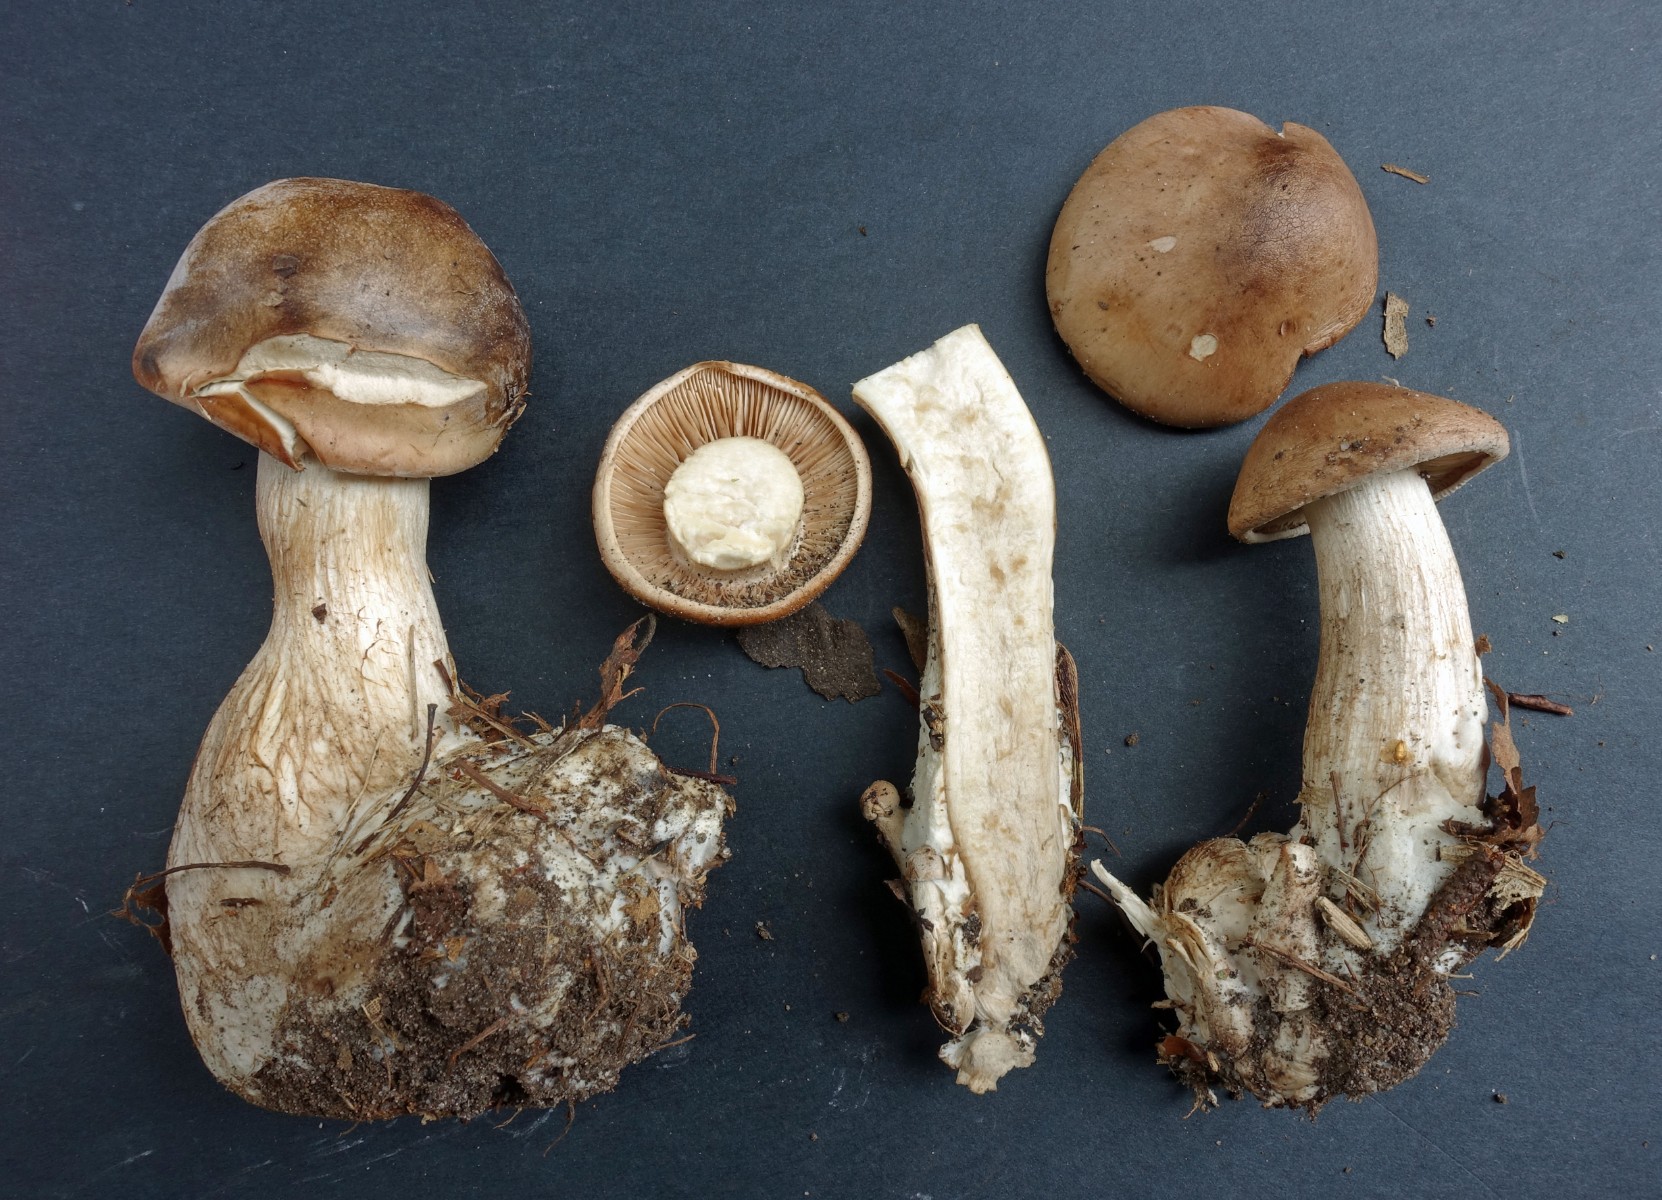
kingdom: Fungi
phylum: Basidiomycota
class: Agaricomycetes
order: Agaricales
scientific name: Agaricales
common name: champignonordenen
